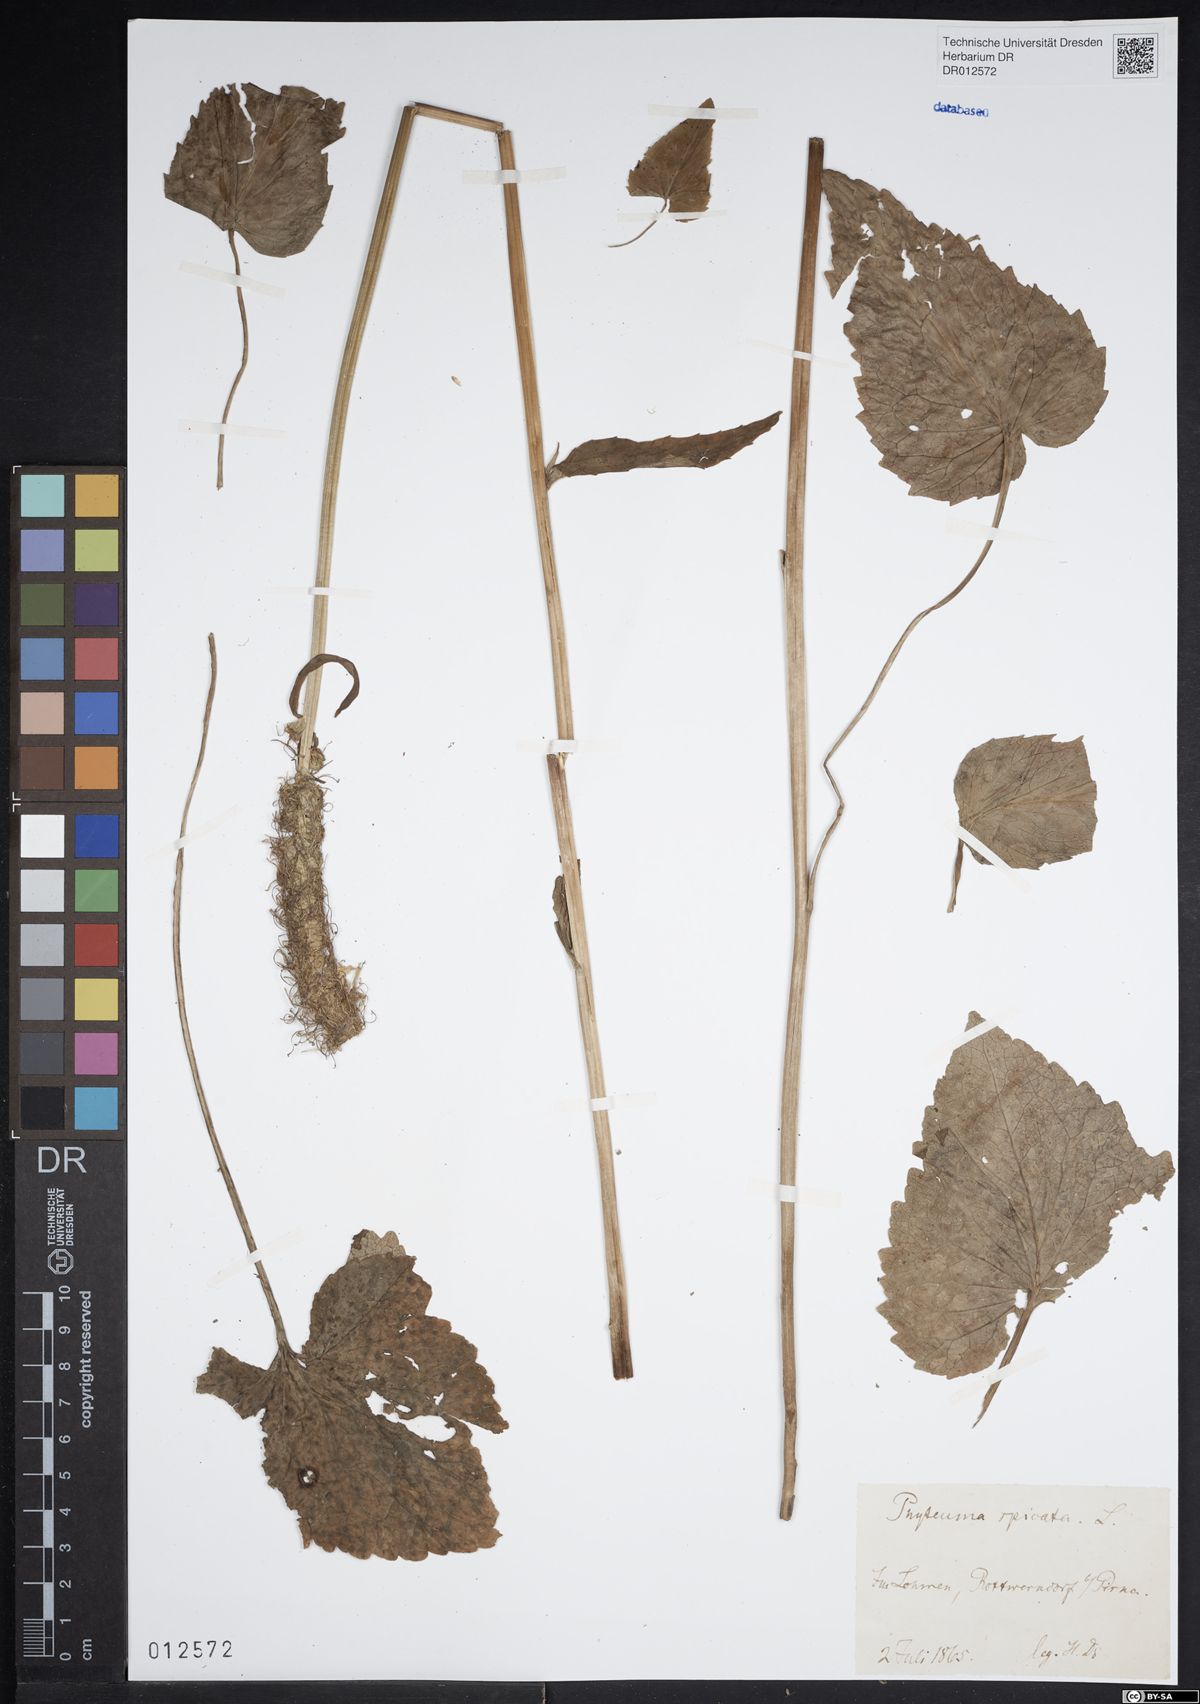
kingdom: Plantae
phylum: Tracheophyta
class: Magnoliopsida
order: Asterales
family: Campanulaceae
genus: Phyteuma
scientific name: Phyteuma spicatum
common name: Spiked rampion
